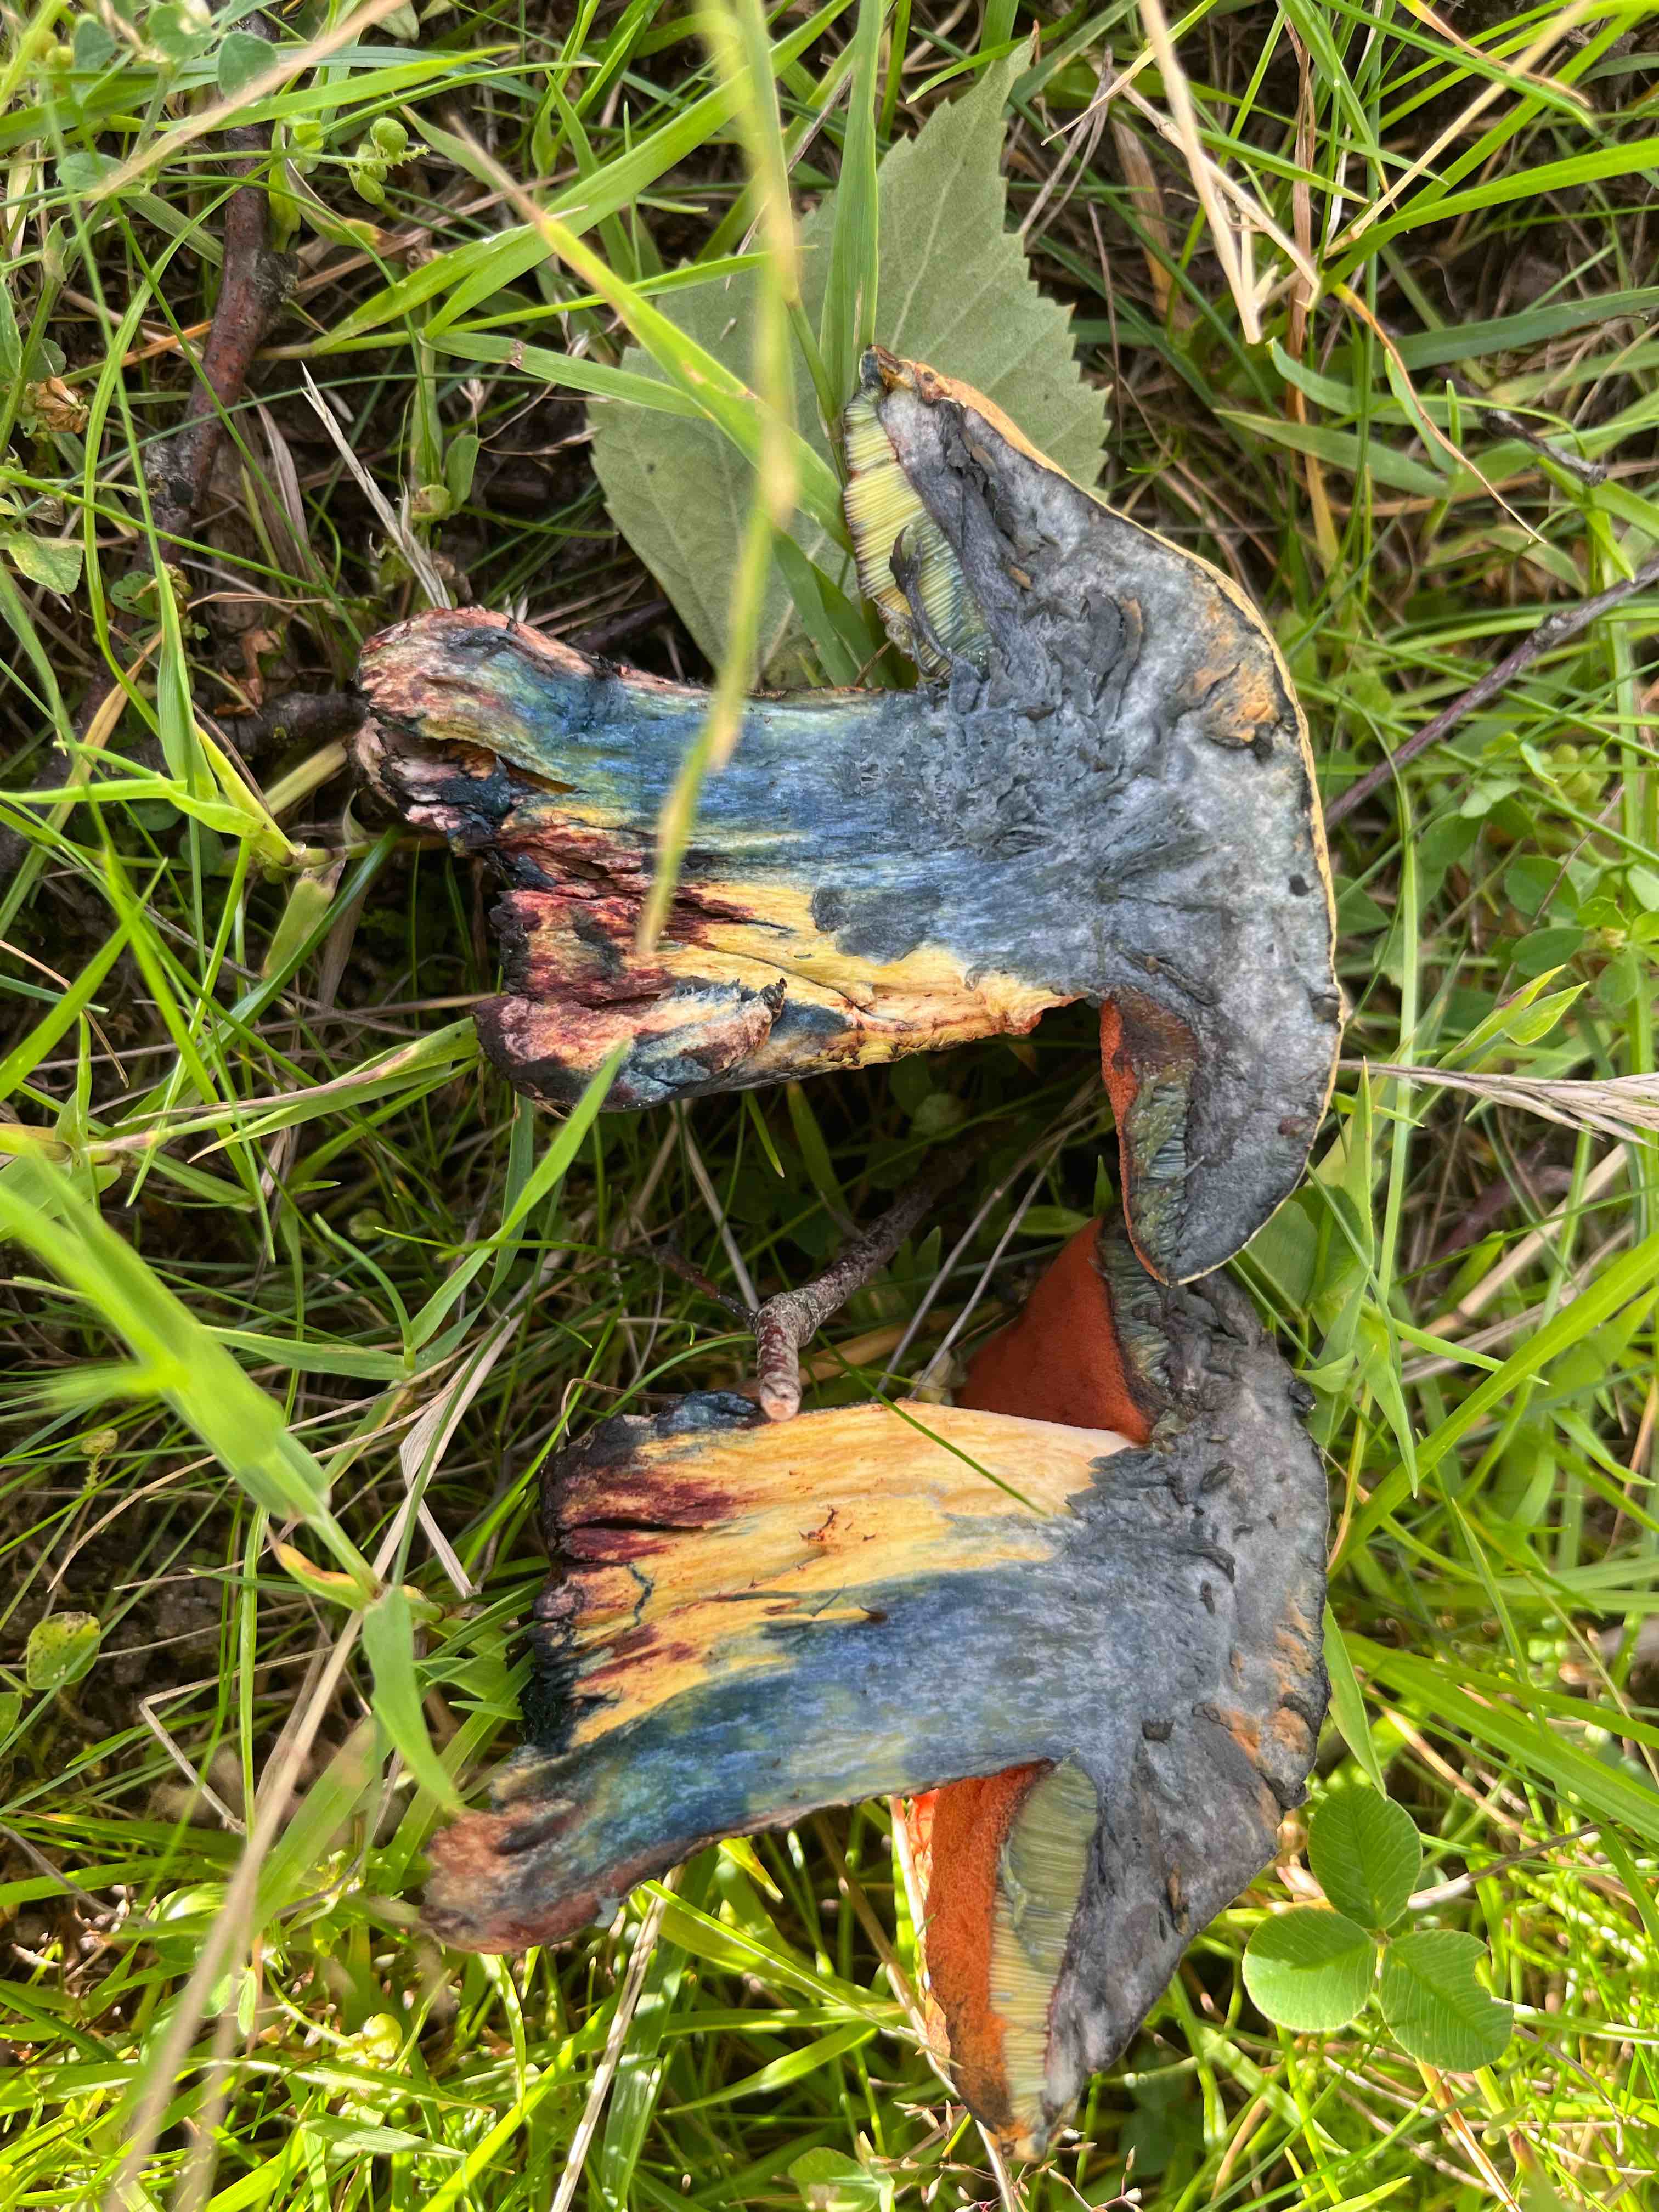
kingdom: Fungi
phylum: Basidiomycota
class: Agaricomycetes
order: Boletales
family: Boletaceae
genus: Suillellus
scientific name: Suillellus luridus
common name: netstokket indigorørhat
